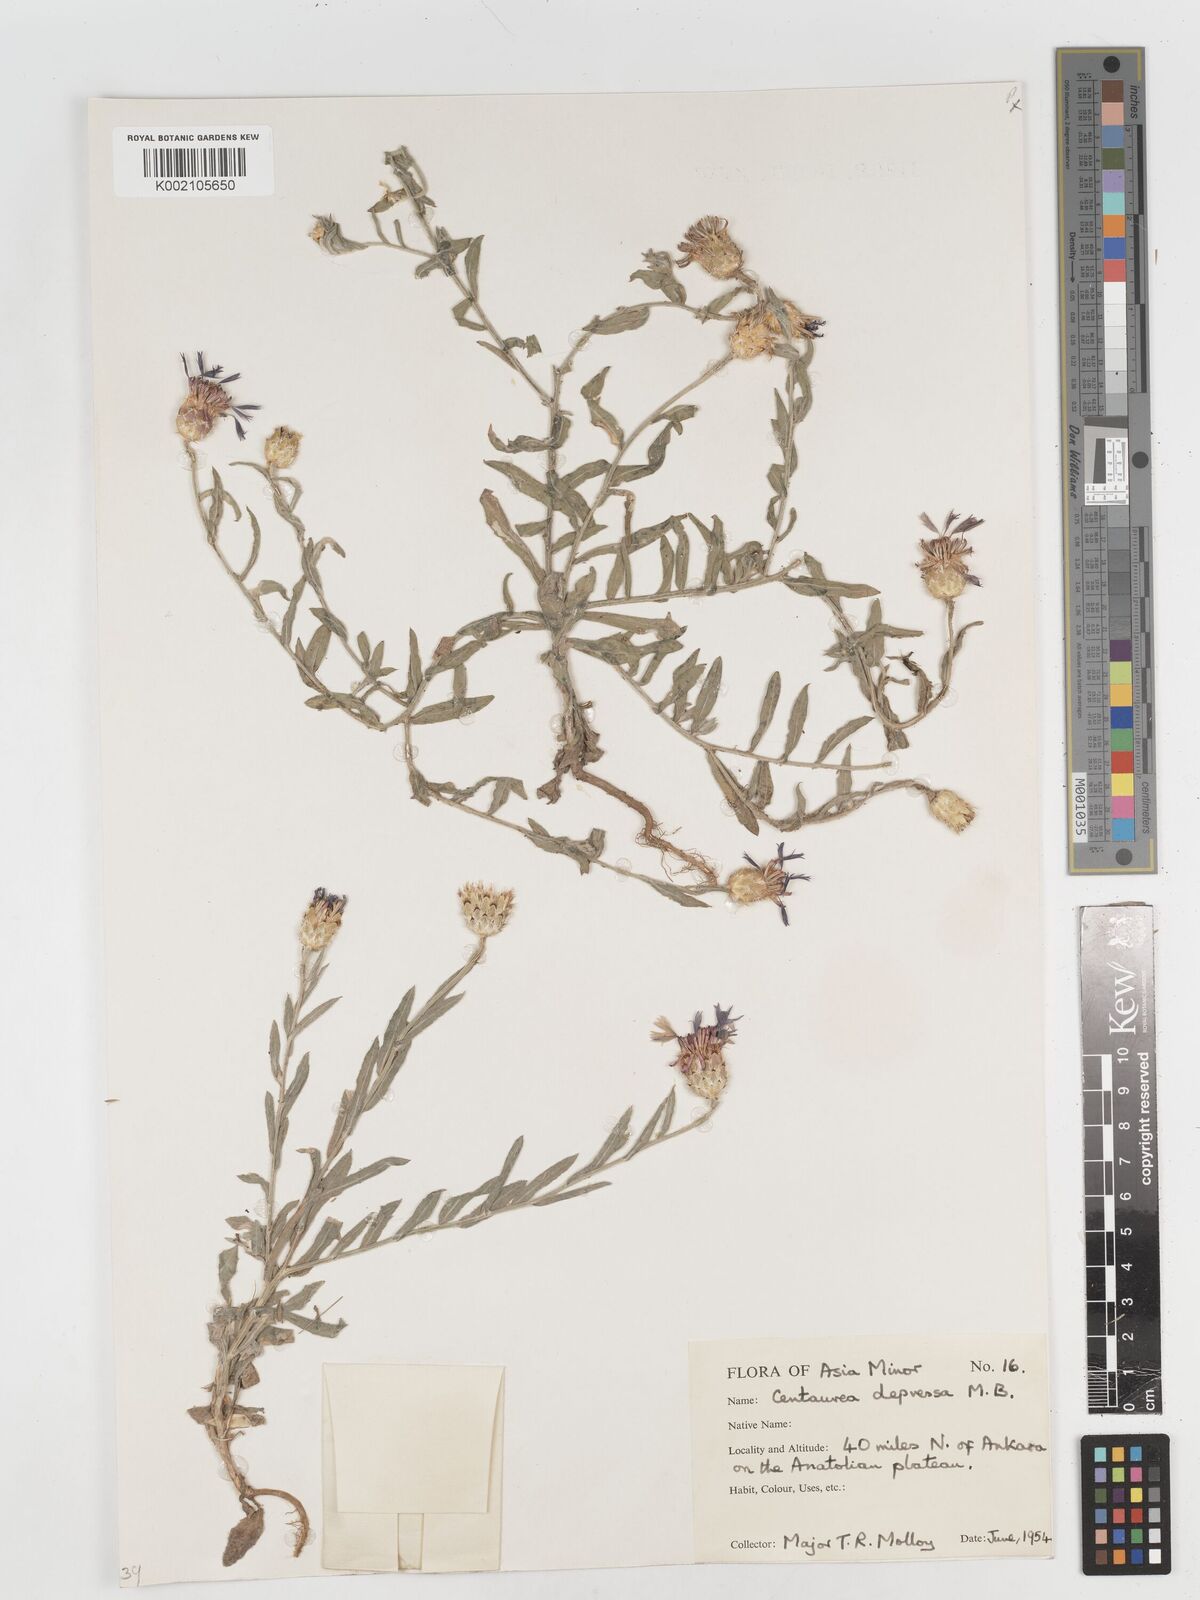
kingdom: Plantae
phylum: Tracheophyta
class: Magnoliopsida
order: Asterales
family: Asteraceae
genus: Centaurea
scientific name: Centaurea depressa
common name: Iranian knapweed
